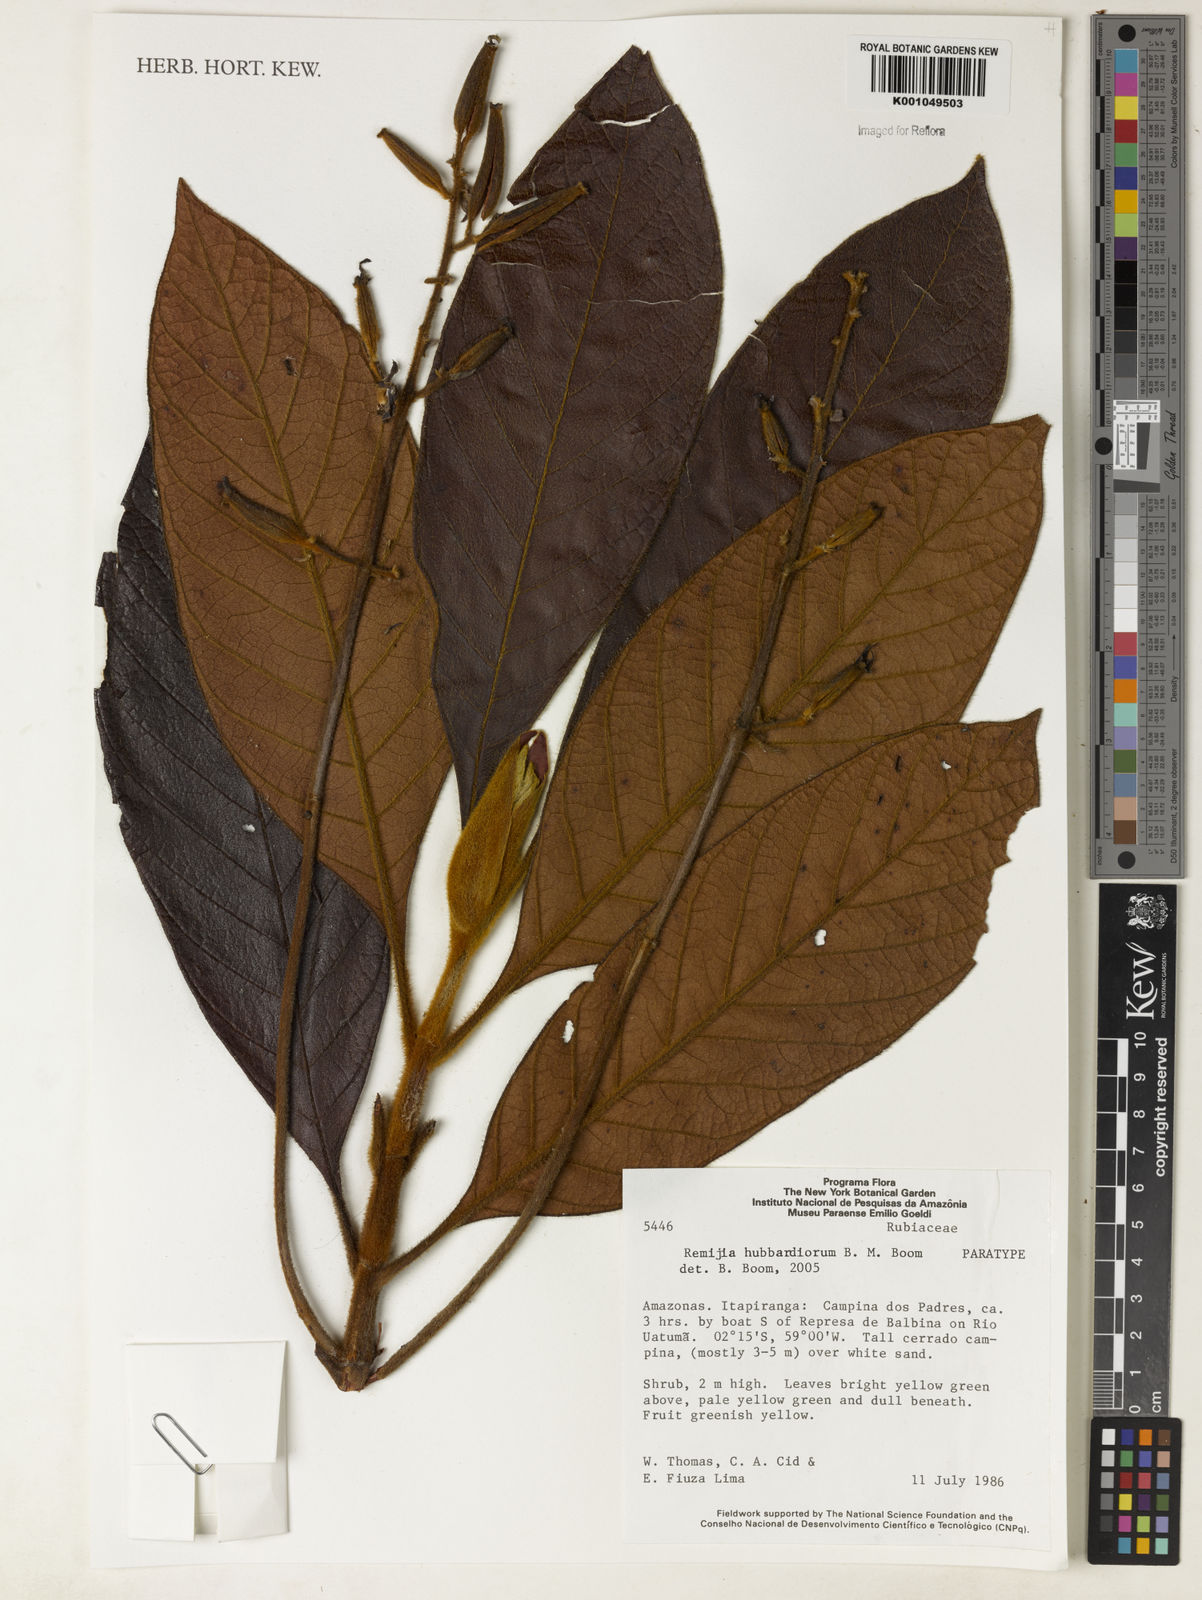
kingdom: Plantae
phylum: Tracheophyta
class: Magnoliopsida
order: Gentianales
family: Rubiaceae
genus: Remijia
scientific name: Remijia hubbardiorum
